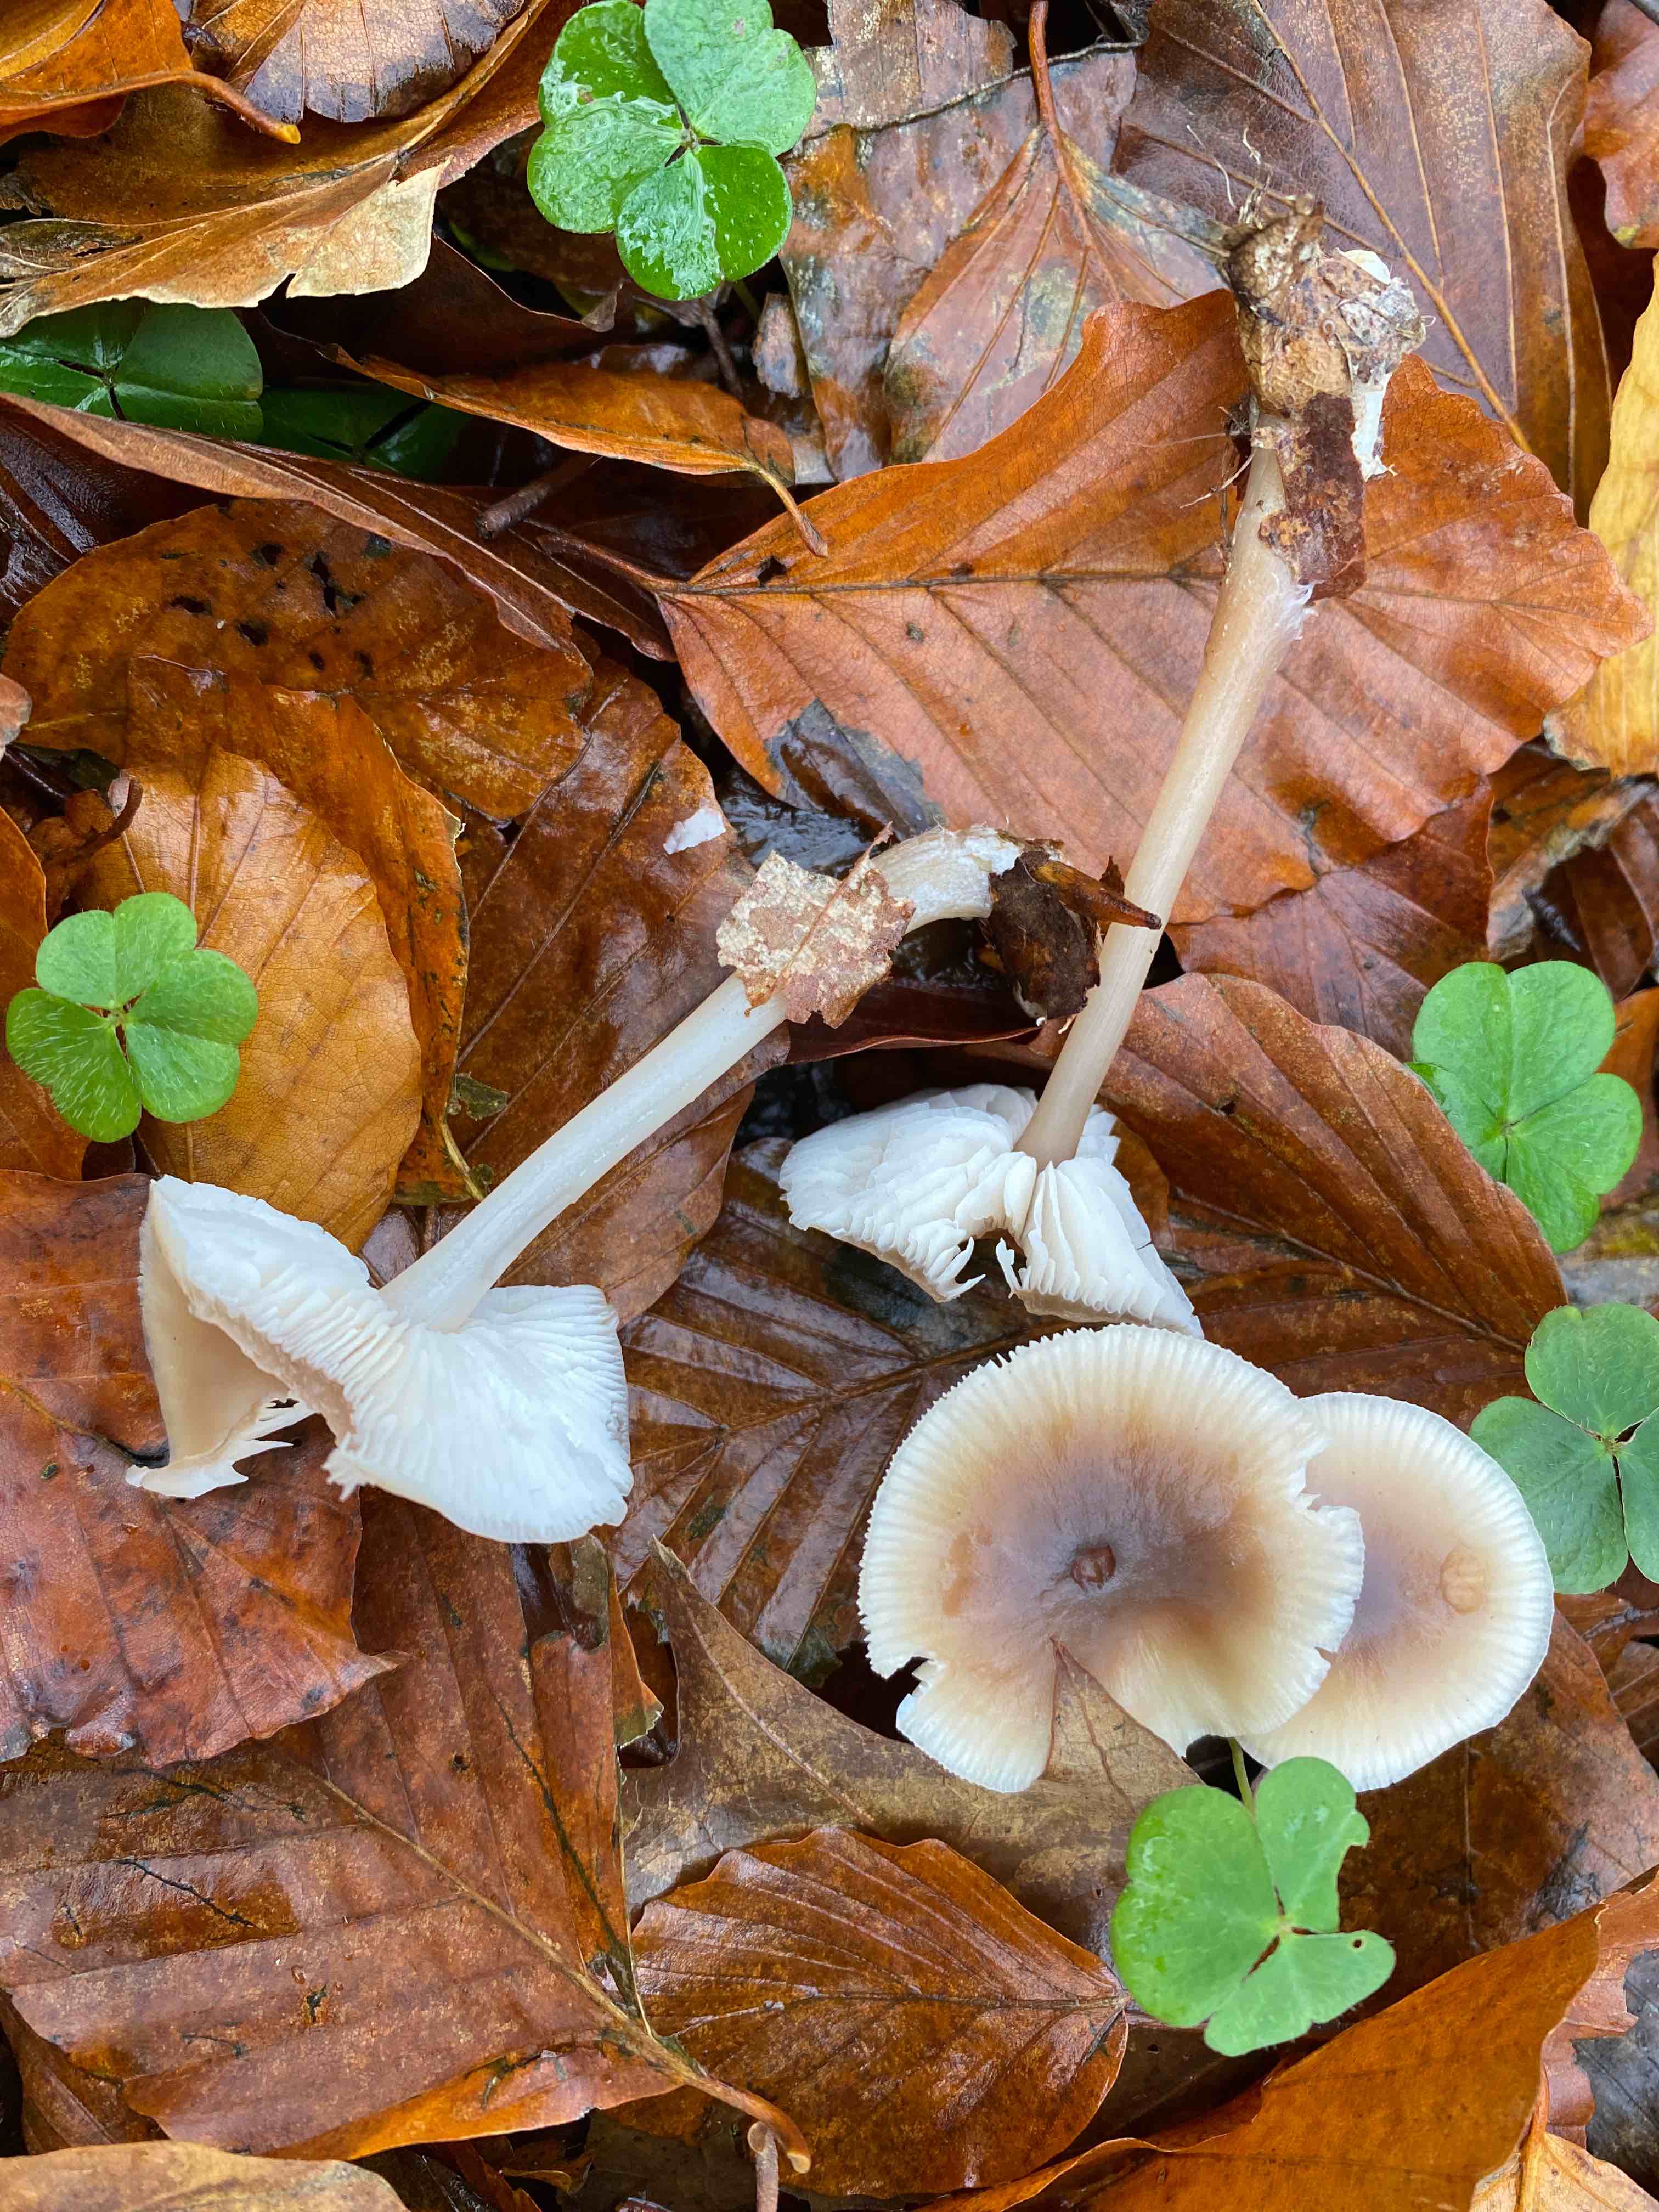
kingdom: Fungi
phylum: Basidiomycota
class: Agaricomycetes
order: Agaricales
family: Omphalotaceae
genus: Rhodocollybia
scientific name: Rhodocollybia asema
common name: horngrå fladhat
